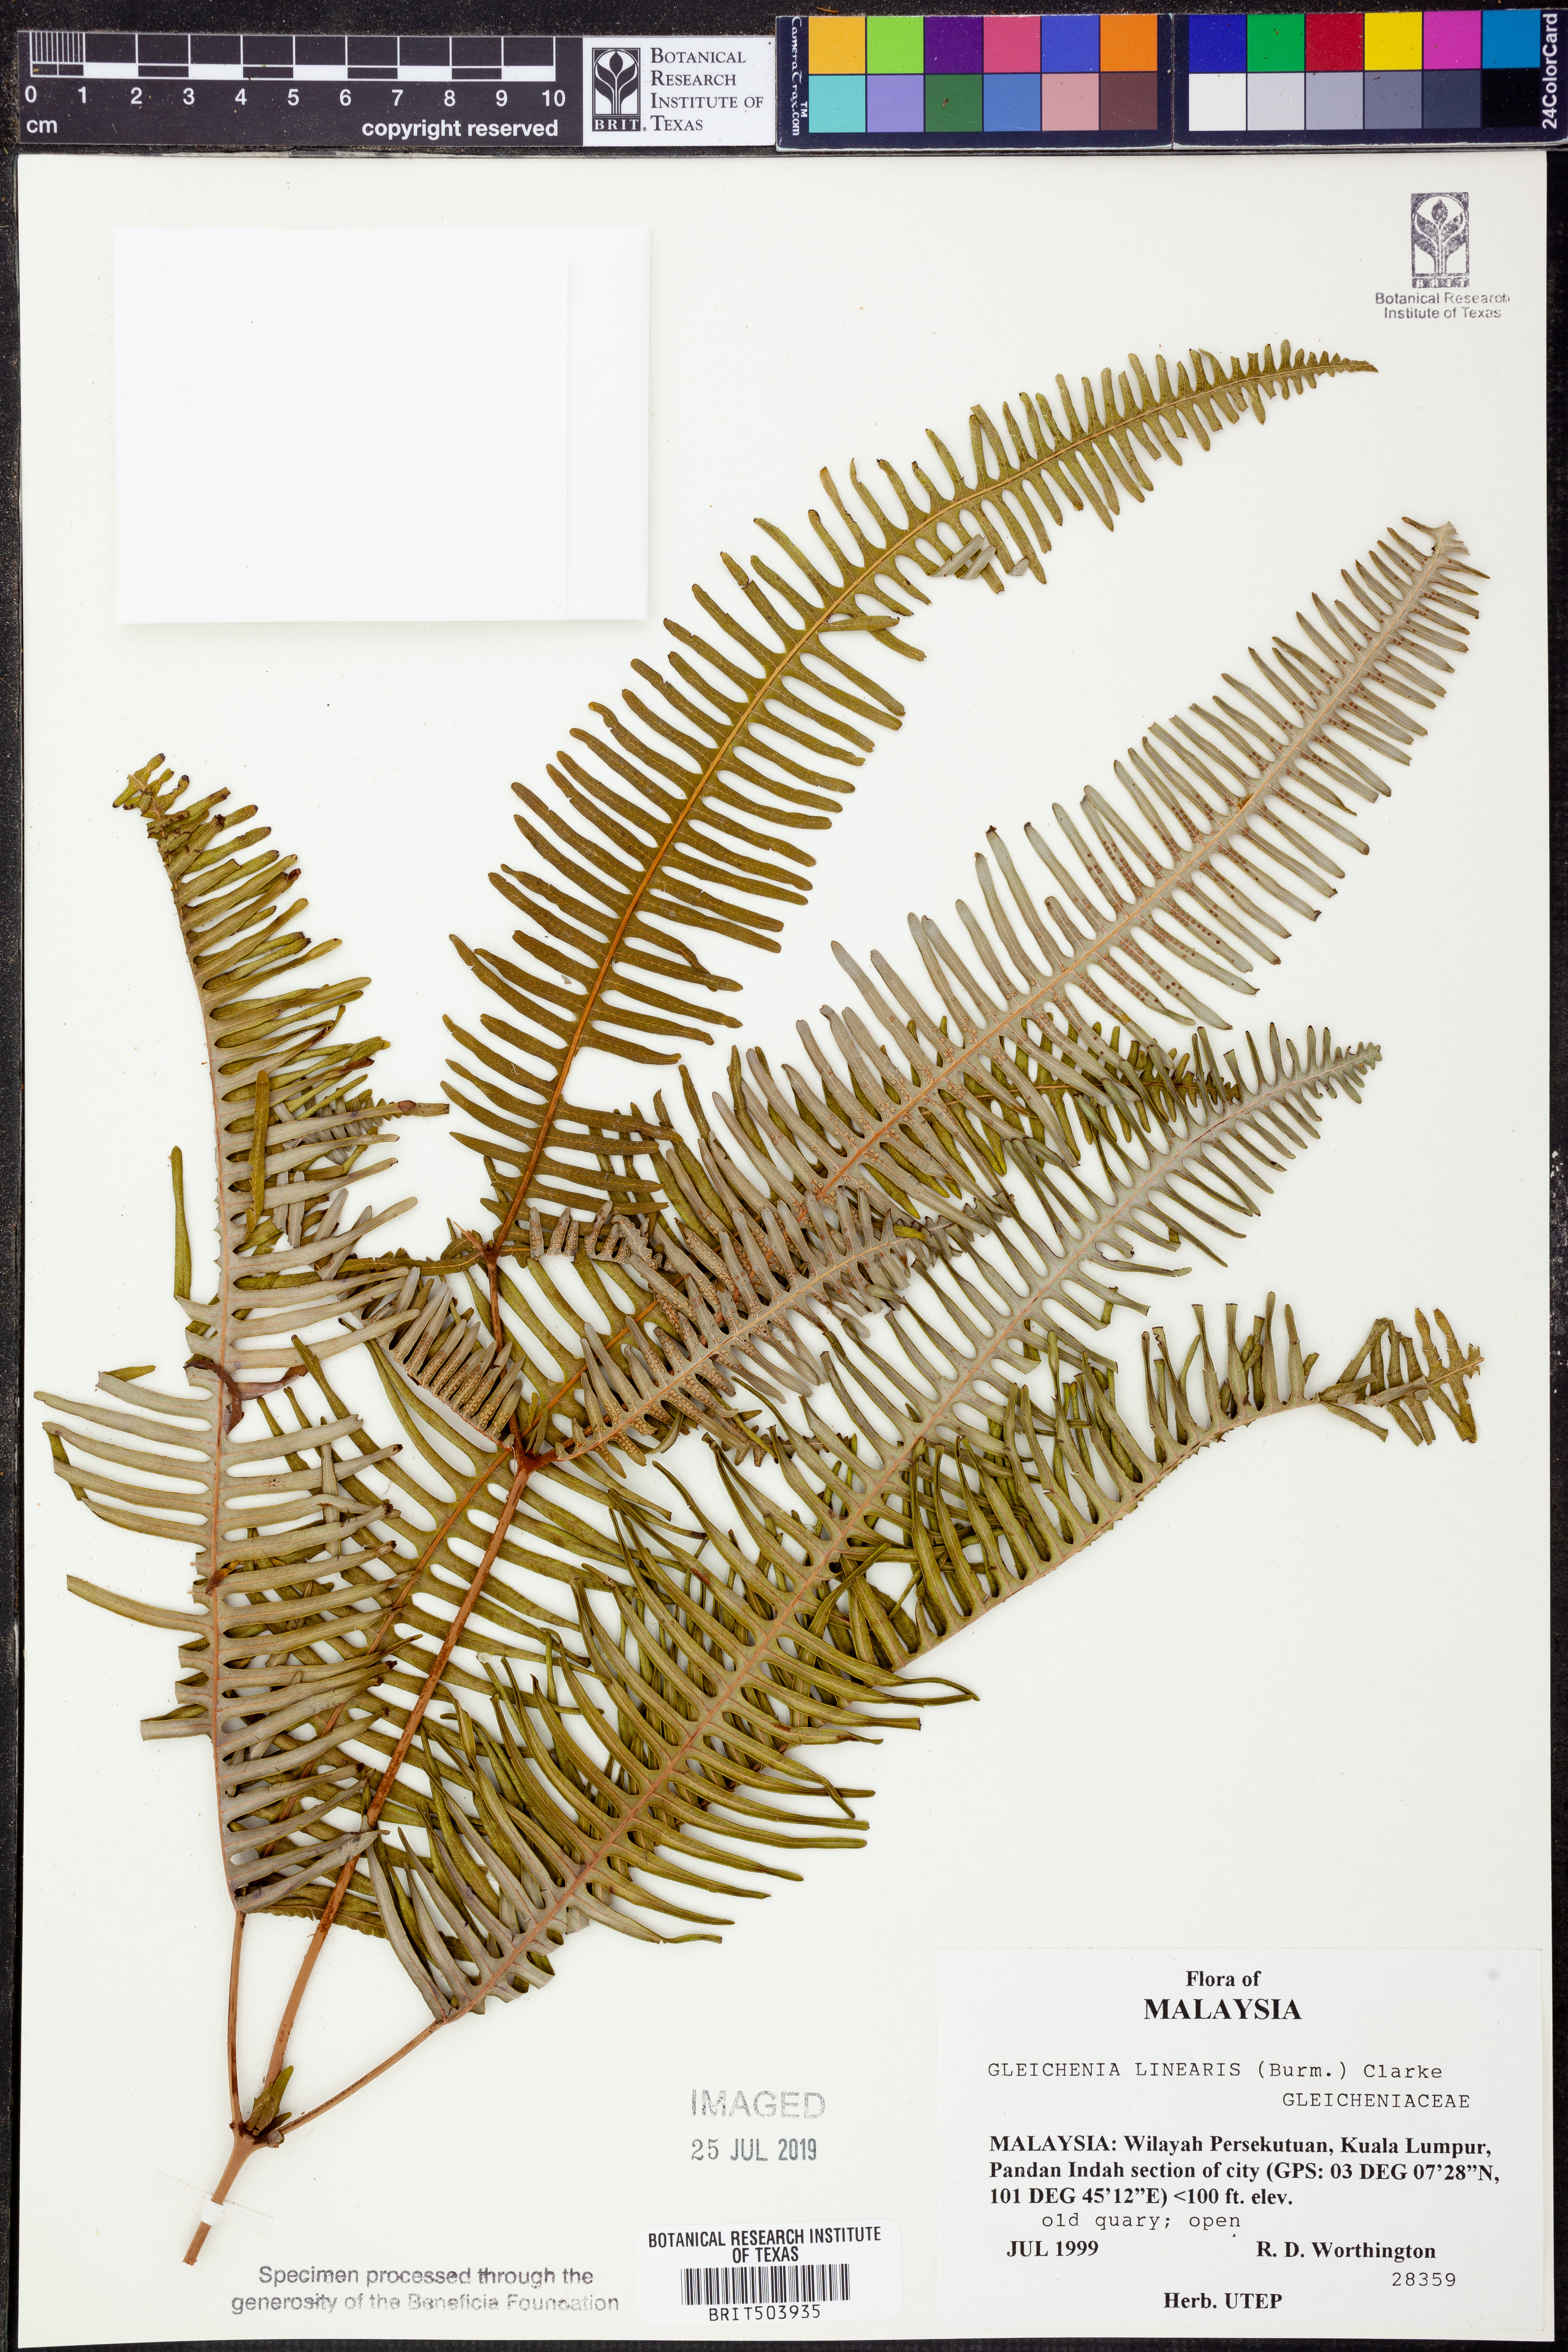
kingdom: Plantae
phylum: Tracheophyta
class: Polypodiopsida
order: Gleicheniales
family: Gleicheniaceae
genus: Dicranopteris
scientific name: Dicranopteris linearis
